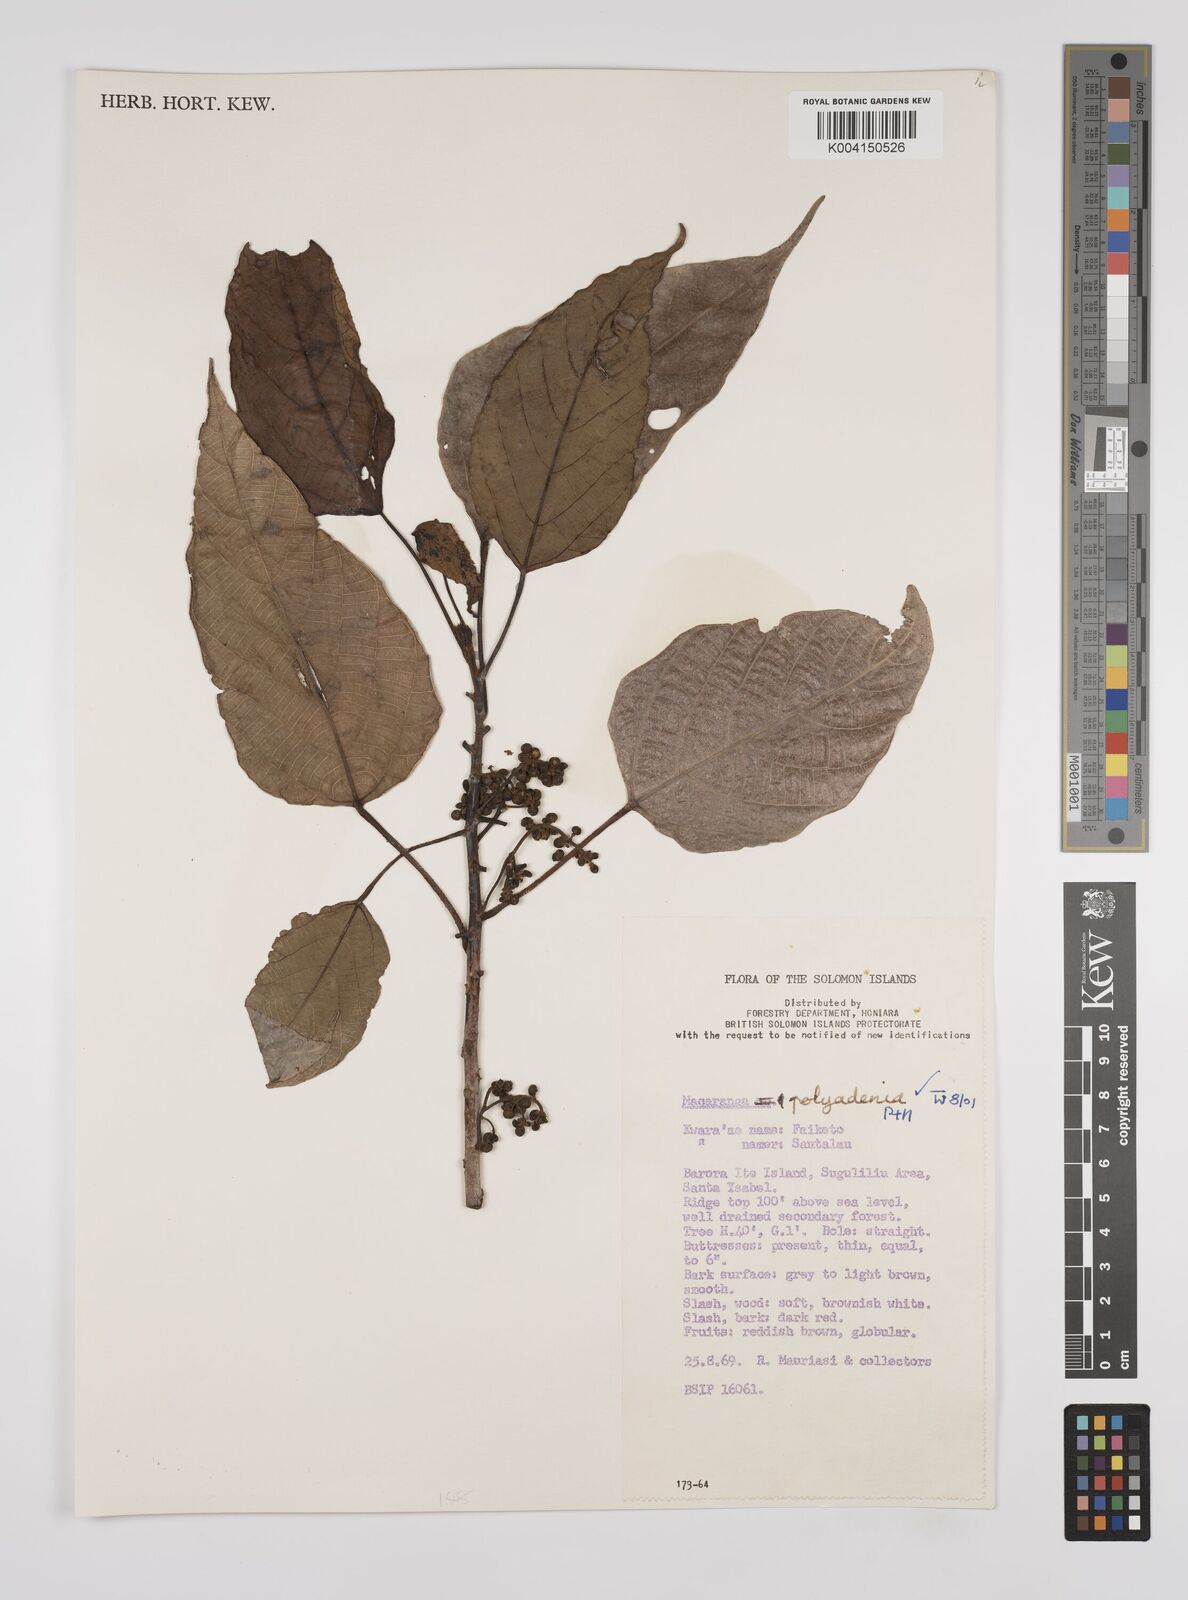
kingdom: Plantae
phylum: Tracheophyta
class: Magnoliopsida
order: Malpighiales
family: Euphorbiaceae
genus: Macaranga
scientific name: Macaranga polyadenia
